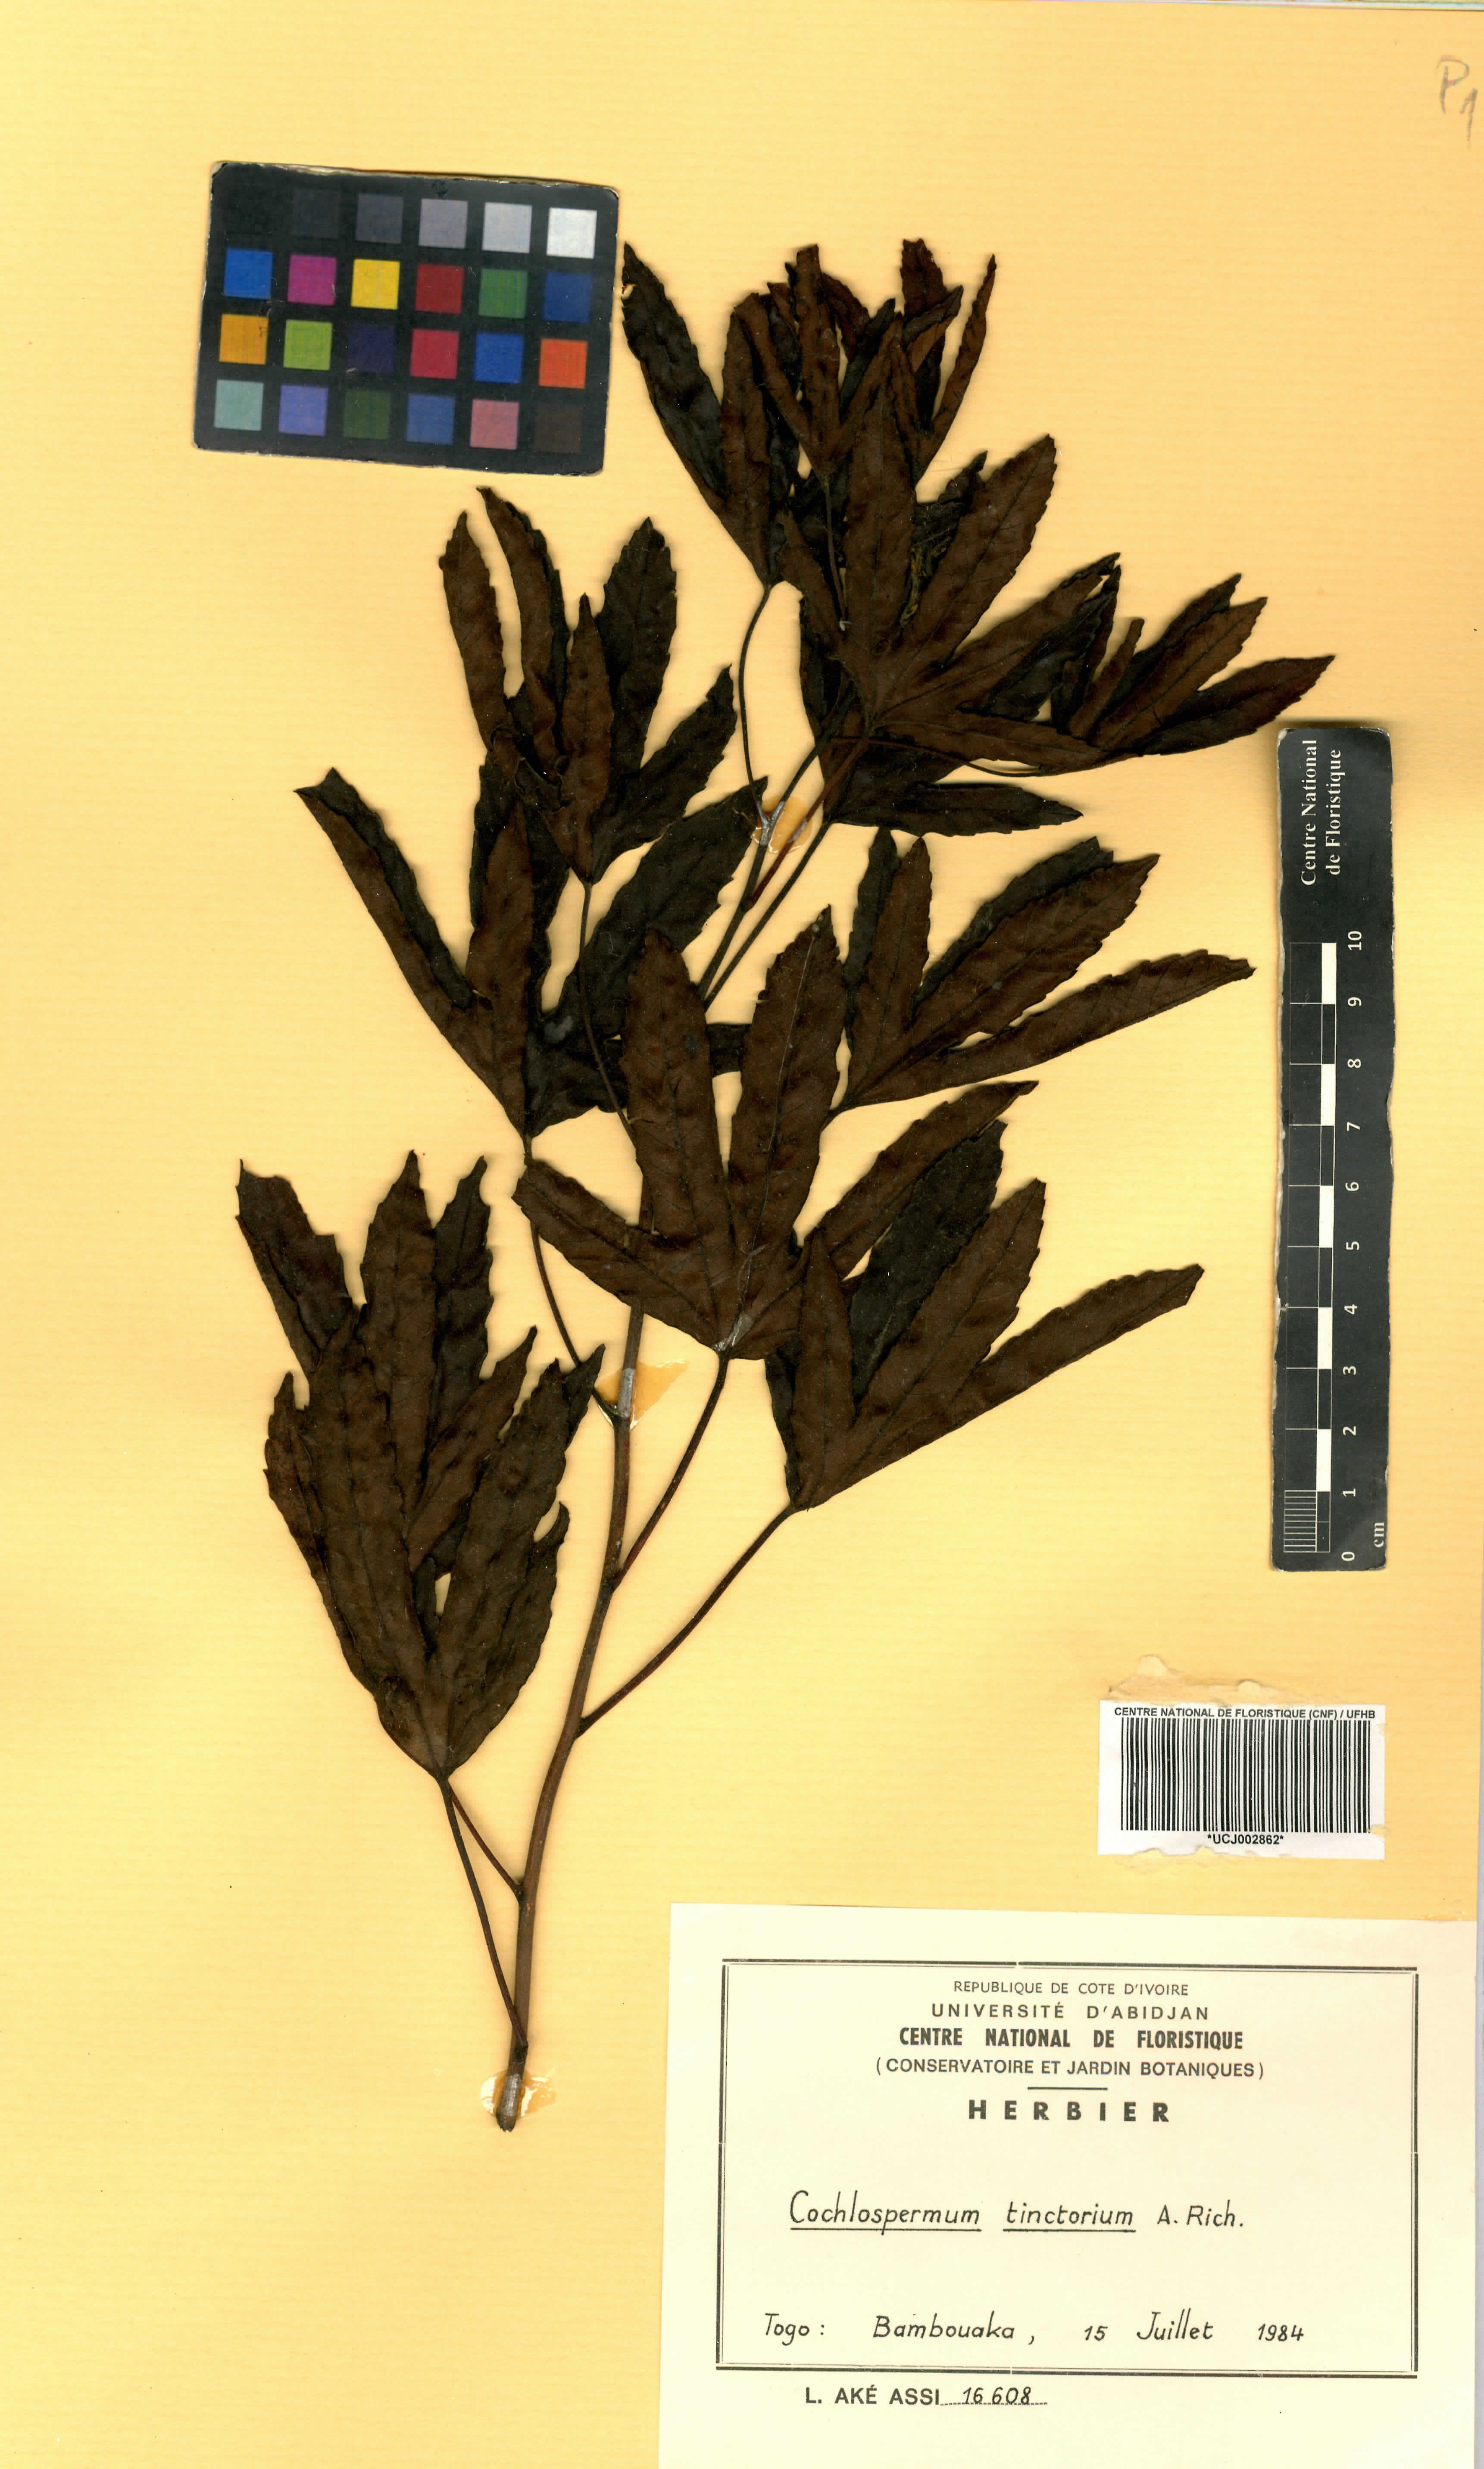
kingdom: Plantae
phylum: Tracheophyta
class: Magnoliopsida
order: Malvales
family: Cochlospermaceae
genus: Cochlospermum
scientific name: Cochlospermum tinctorium
